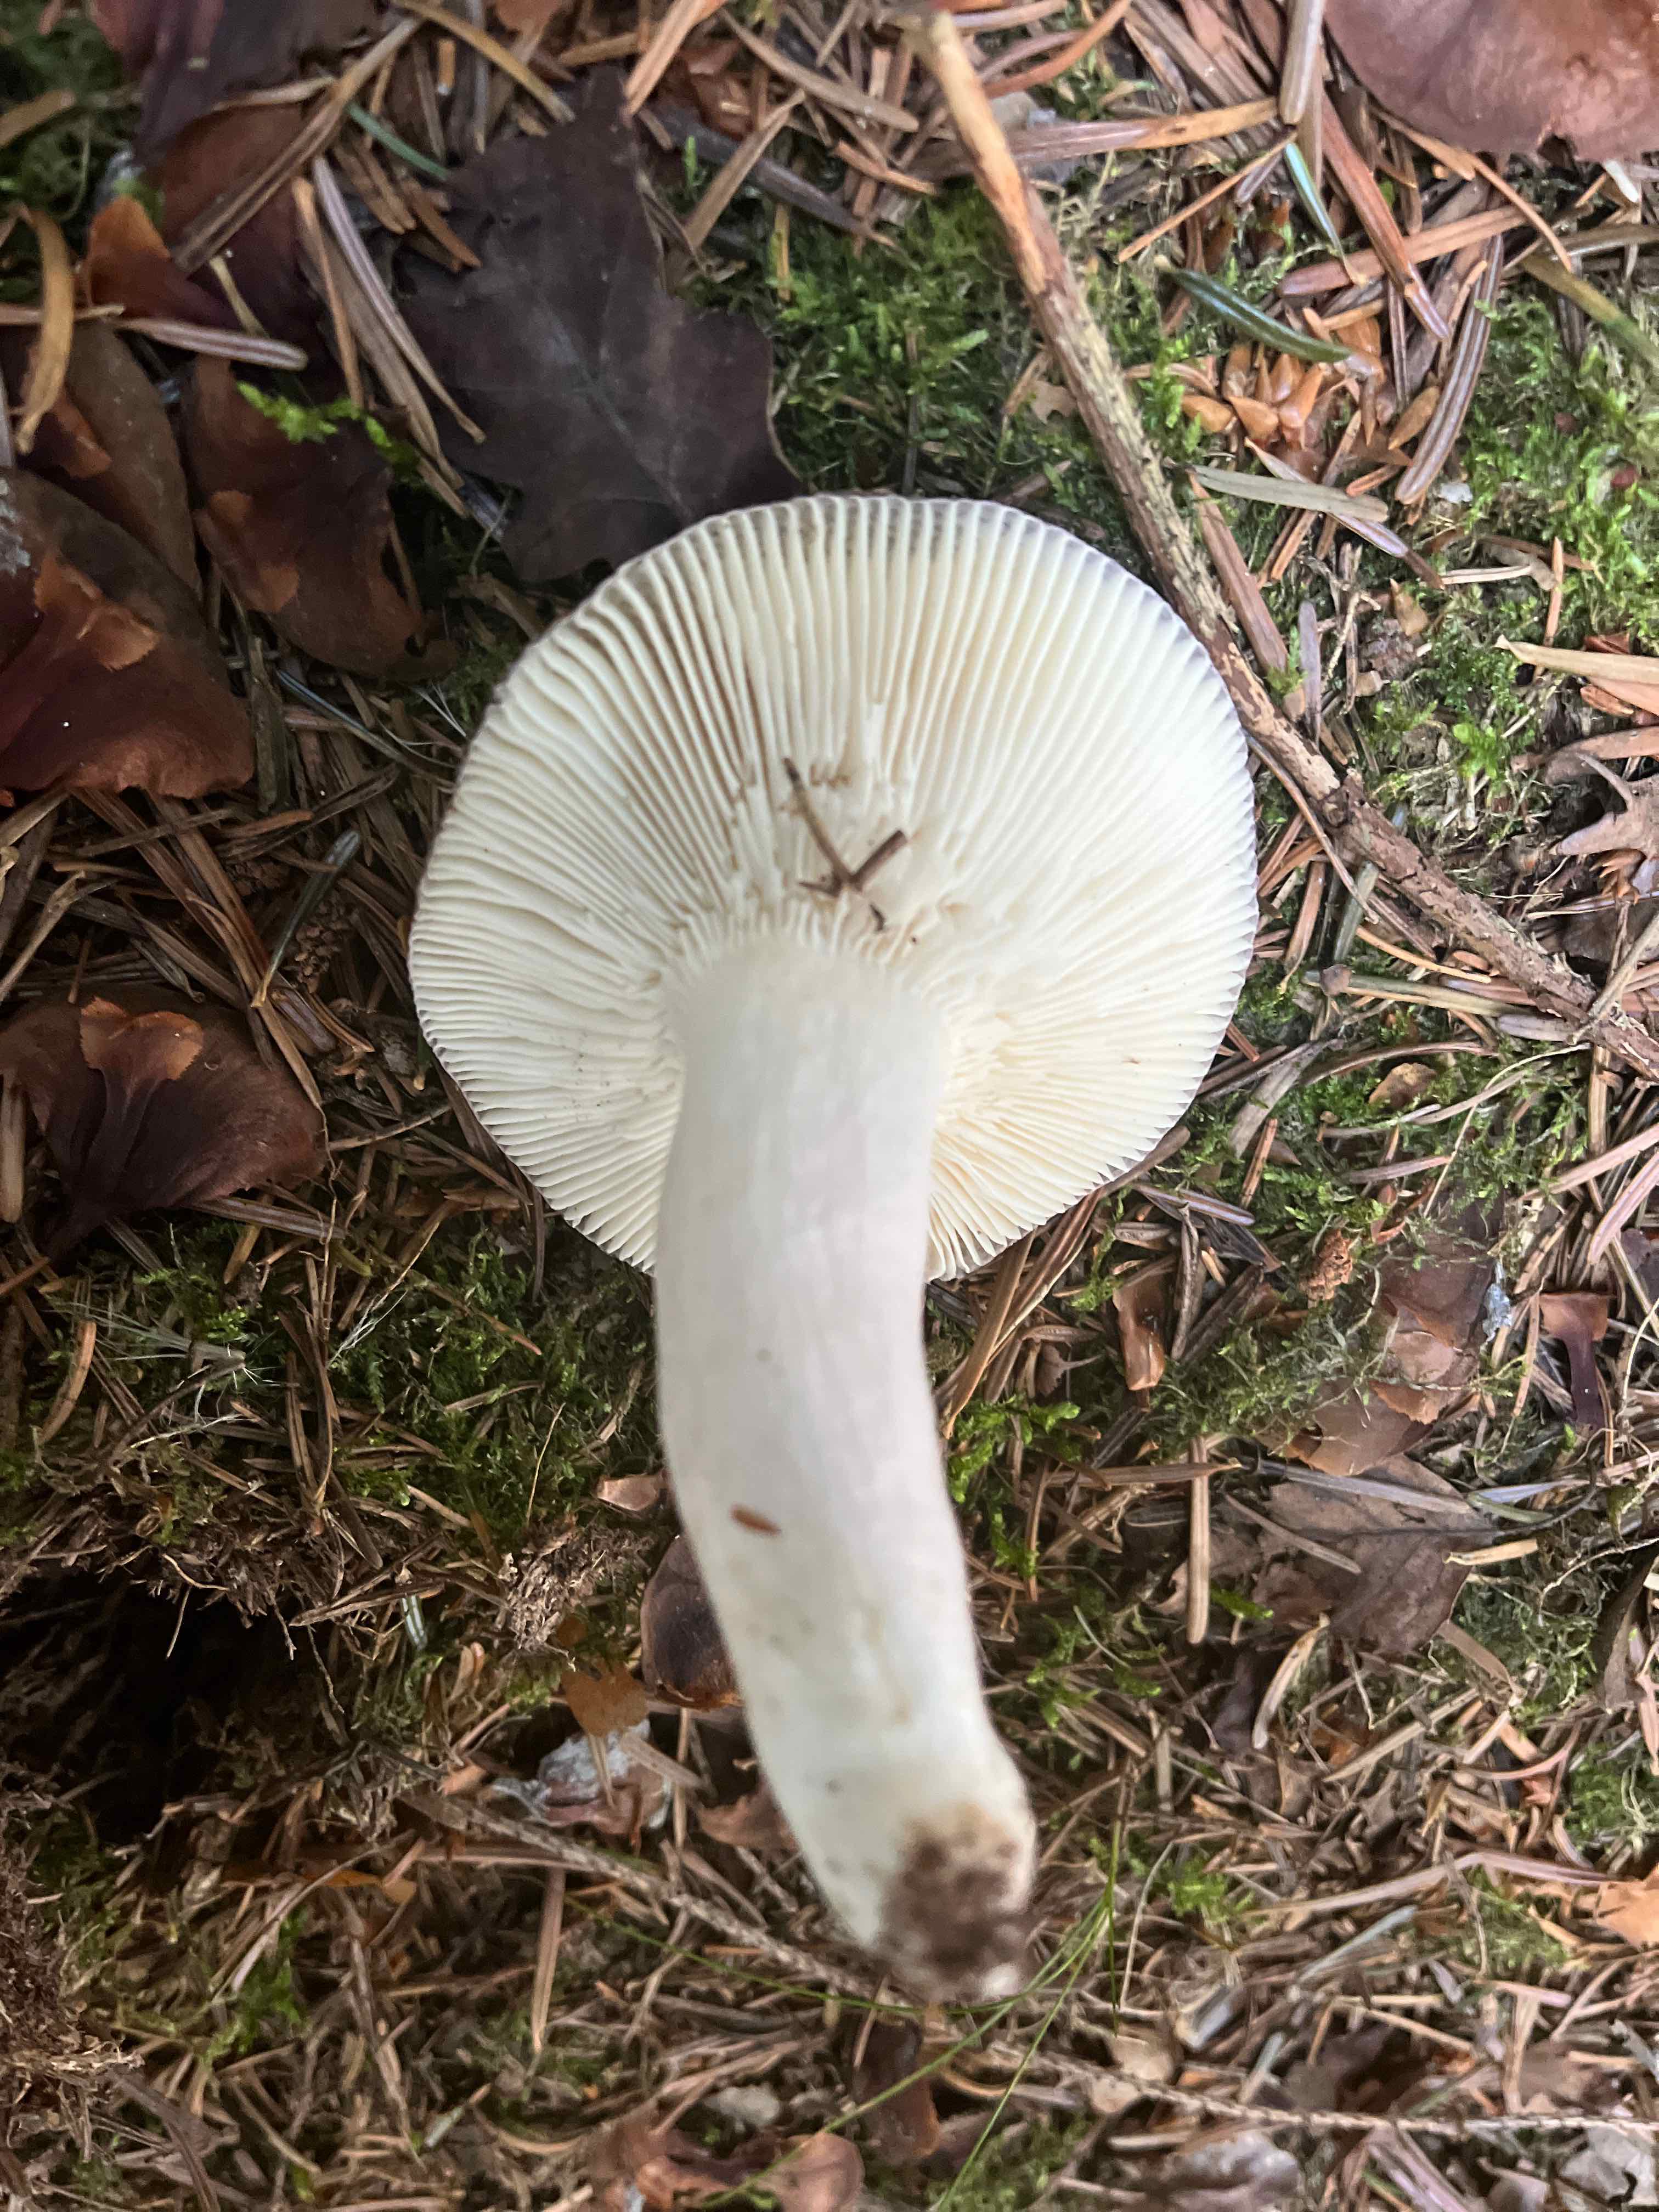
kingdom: Fungi
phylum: Basidiomycota
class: Agaricomycetes
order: Russulales
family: Russulaceae
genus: Russula
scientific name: Russula
